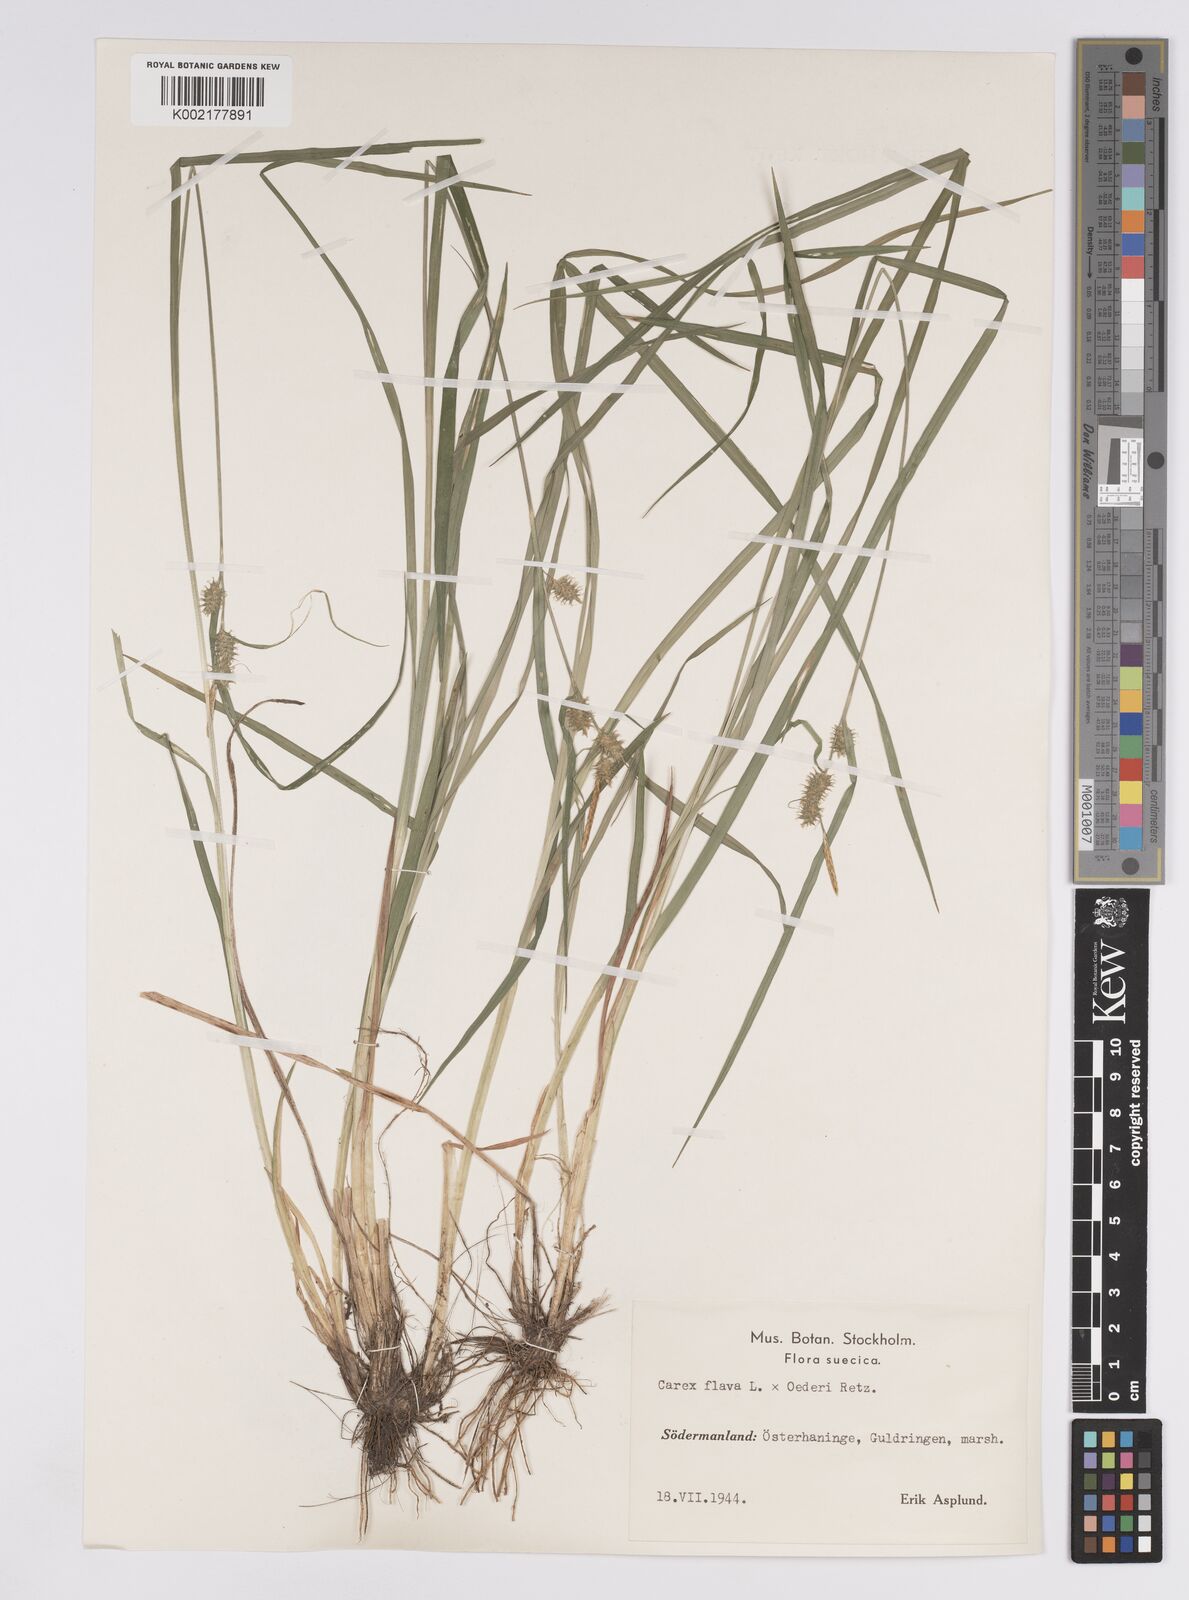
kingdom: Plantae
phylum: Tracheophyta
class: Liliopsida
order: Poales
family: Cyperaceae
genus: Carex
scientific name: Carex flava
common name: Large yellow-sedge
